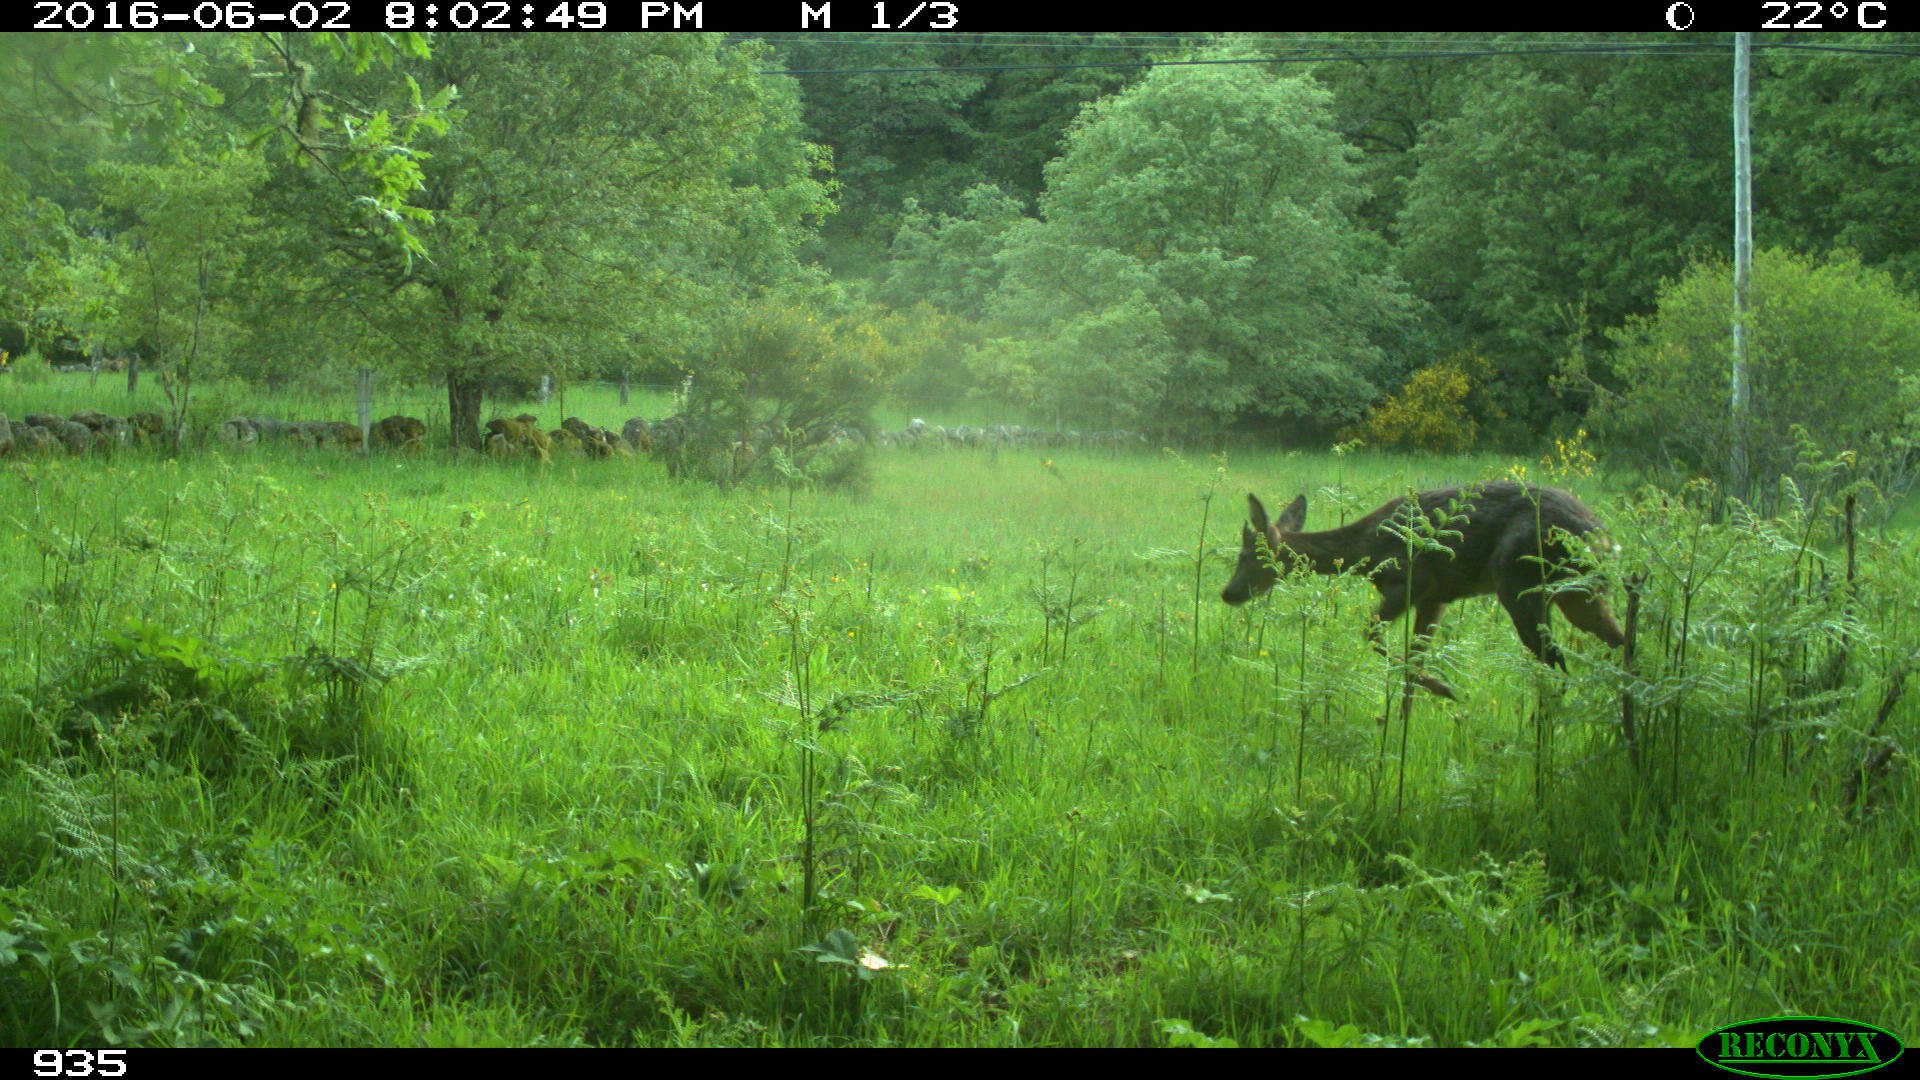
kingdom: Animalia
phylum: Chordata
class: Mammalia
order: Artiodactyla
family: Cervidae
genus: Capreolus
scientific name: Capreolus capreolus
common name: Western roe deer
